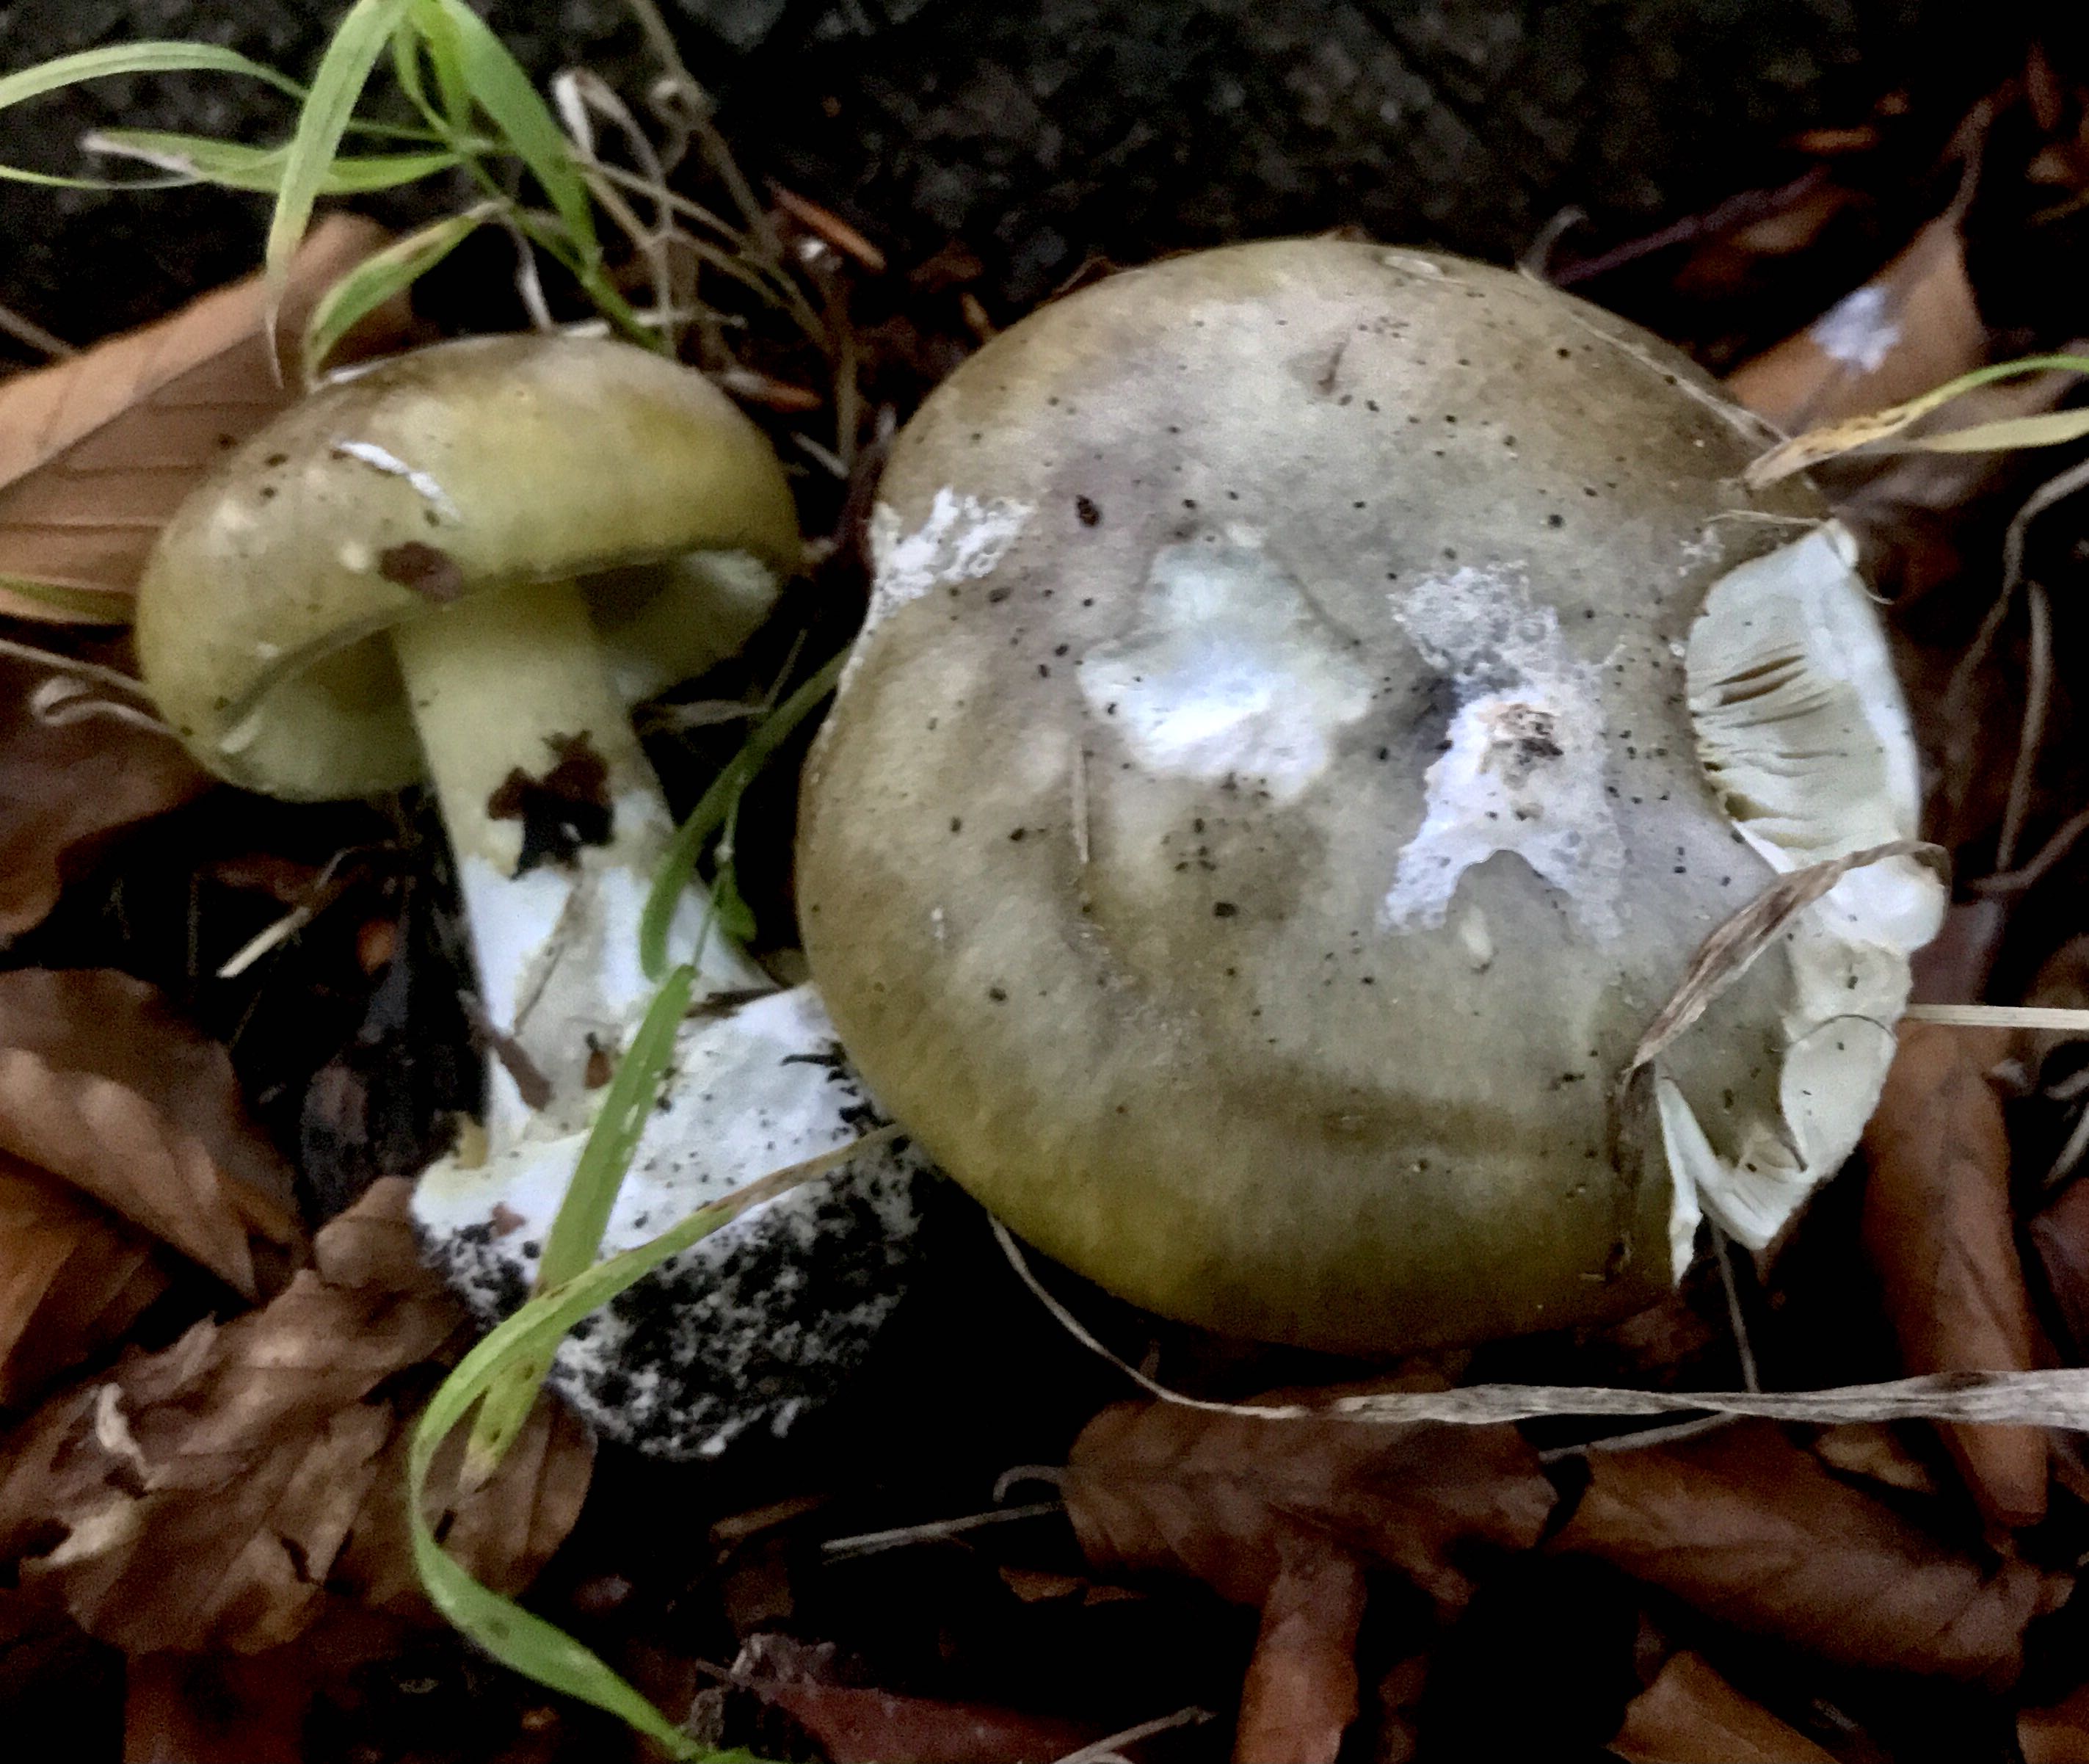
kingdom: Fungi
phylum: Basidiomycota
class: Agaricomycetes
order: Agaricales
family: Amanitaceae
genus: Amanita
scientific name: Amanita phalloides
